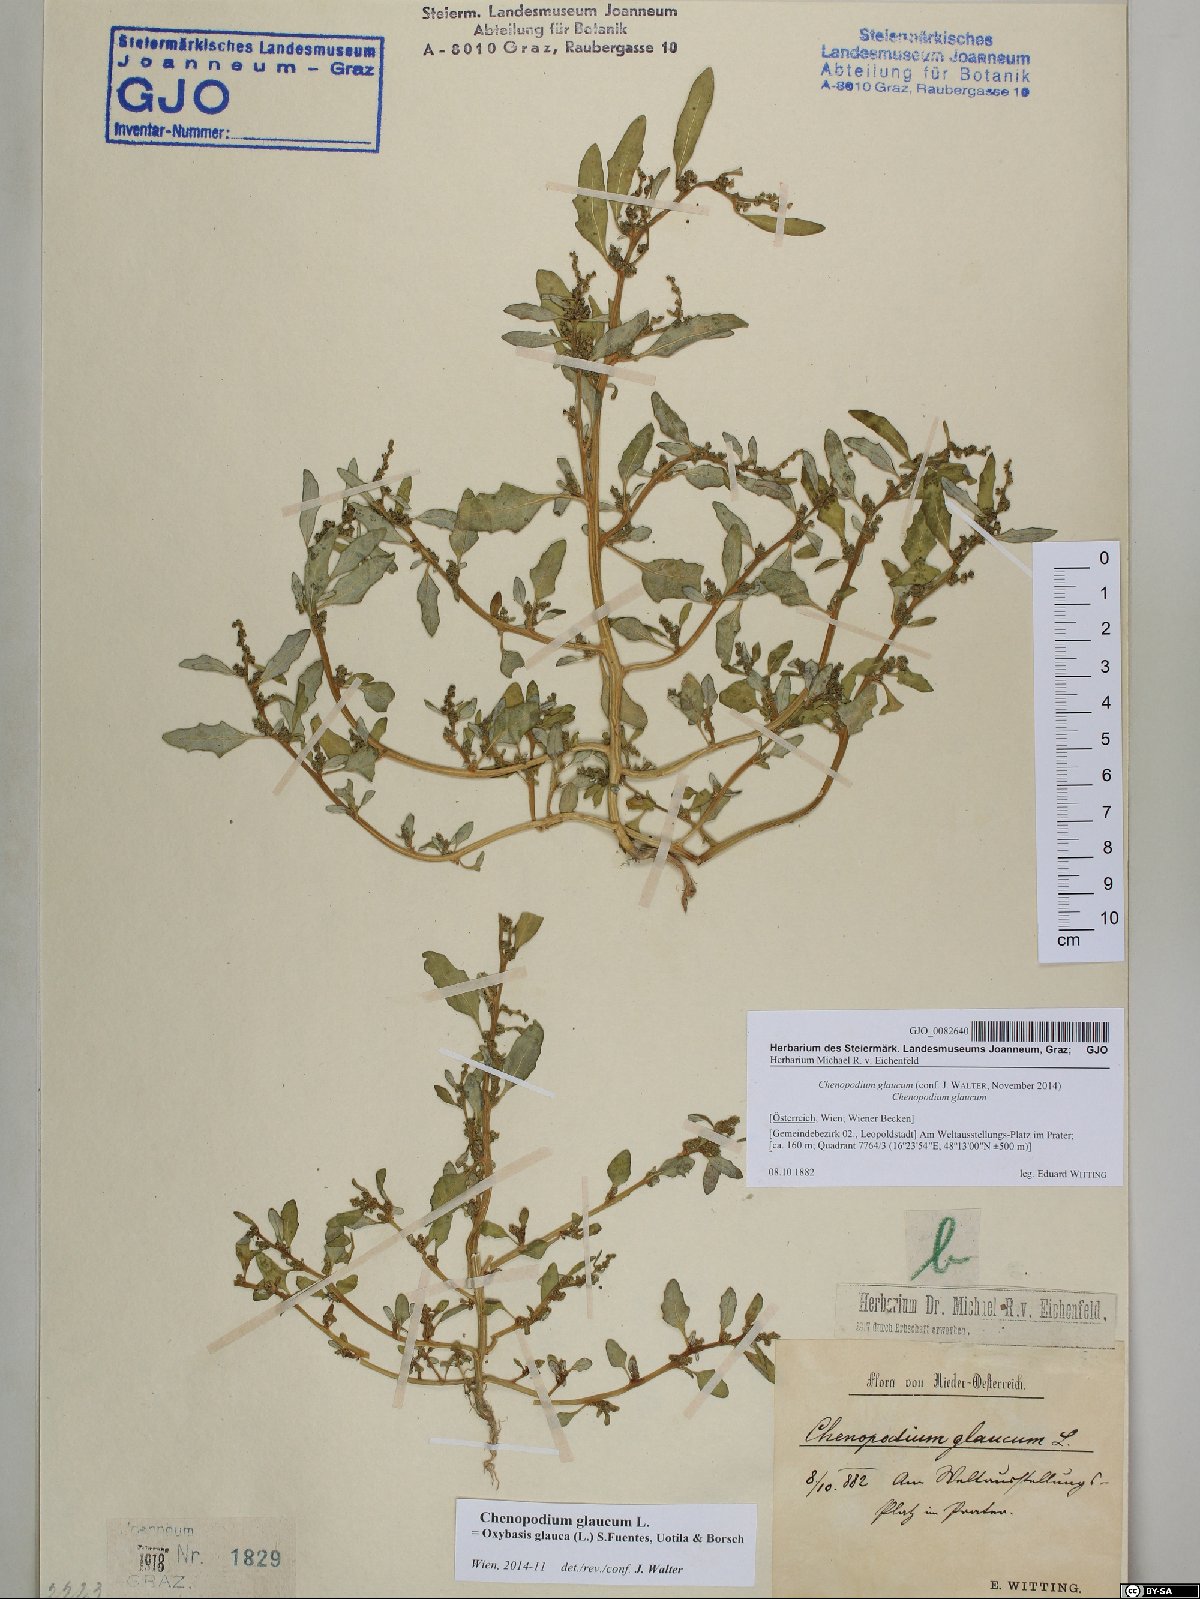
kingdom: Plantae
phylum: Tracheophyta
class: Magnoliopsida
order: Caryophyllales
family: Amaranthaceae
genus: Oxybasis
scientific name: Oxybasis glauca
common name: Glaucous goosefoot
